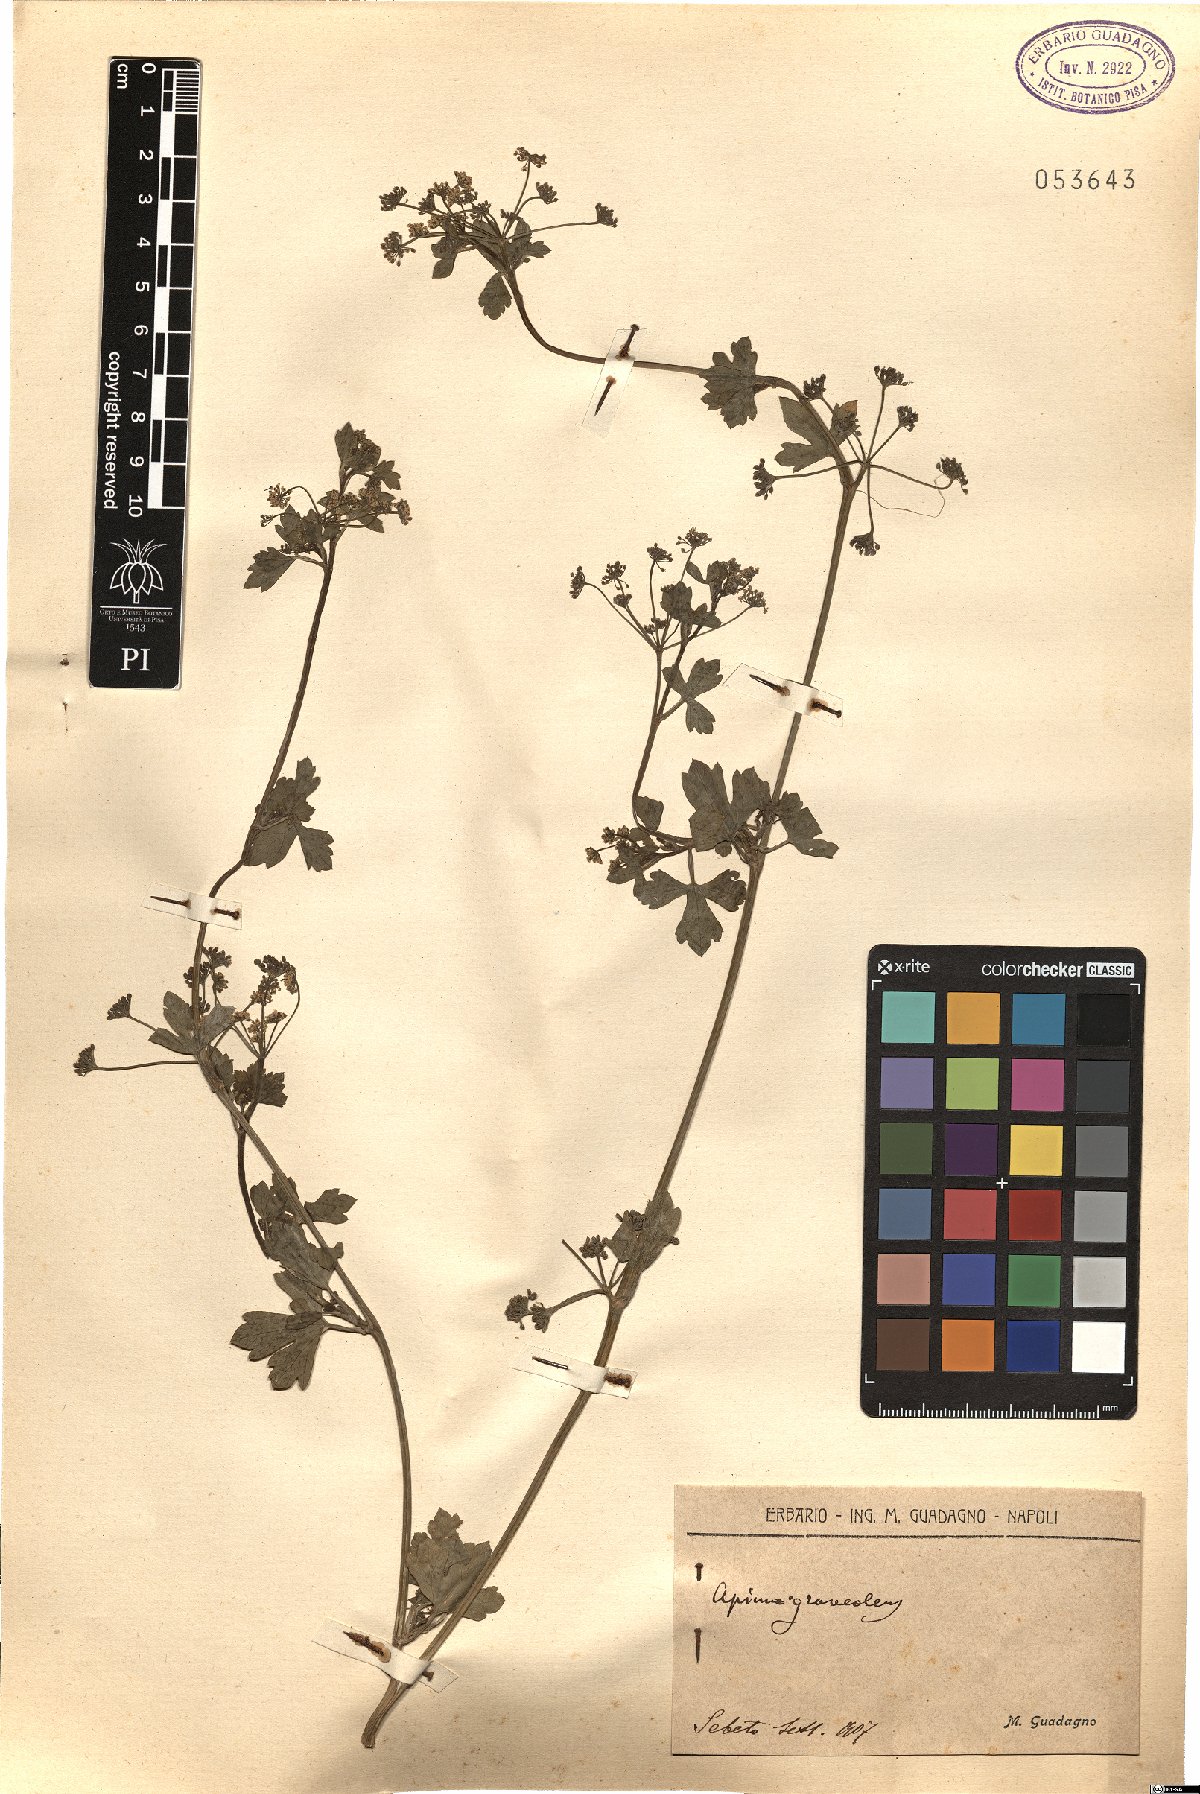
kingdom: Plantae
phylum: Tracheophyta
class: Magnoliopsida
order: Apiales
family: Apiaceae
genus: Apium
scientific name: Apium graveolens
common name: Wild celery
